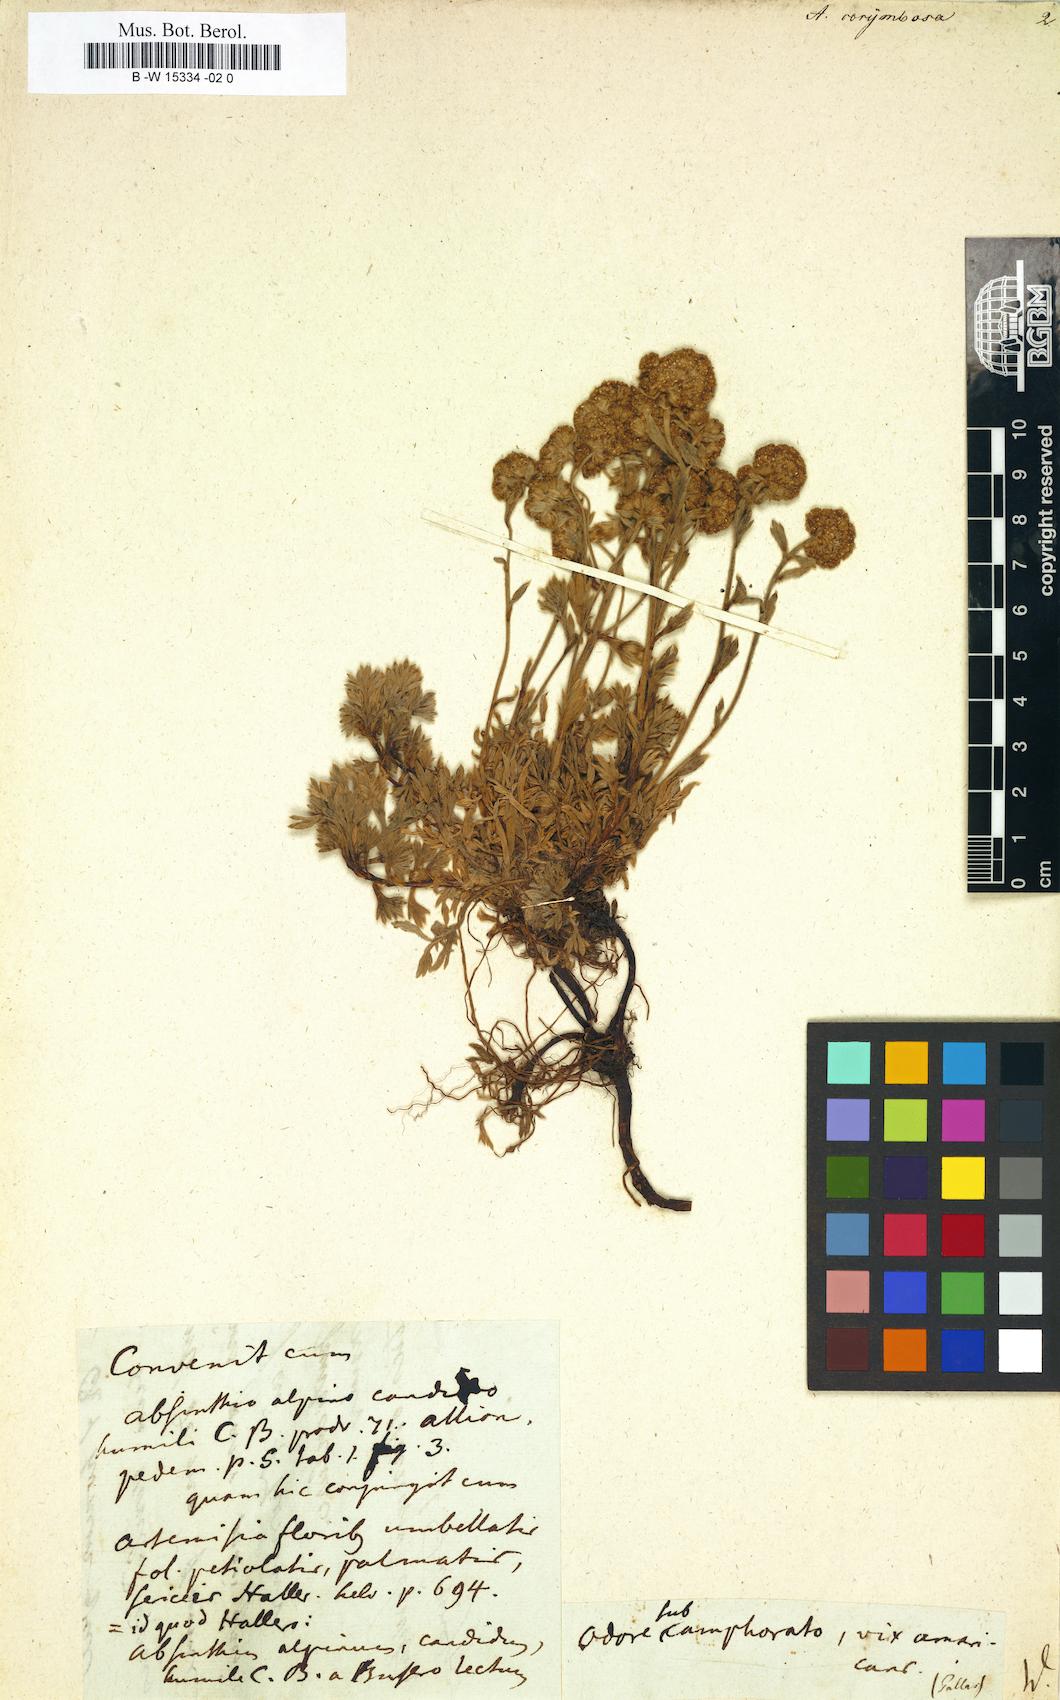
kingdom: Plantae
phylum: Tracheophyta
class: Magnoliopsida
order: Asterales
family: Asteraceae
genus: Artemisia
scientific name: Artemisia alba
